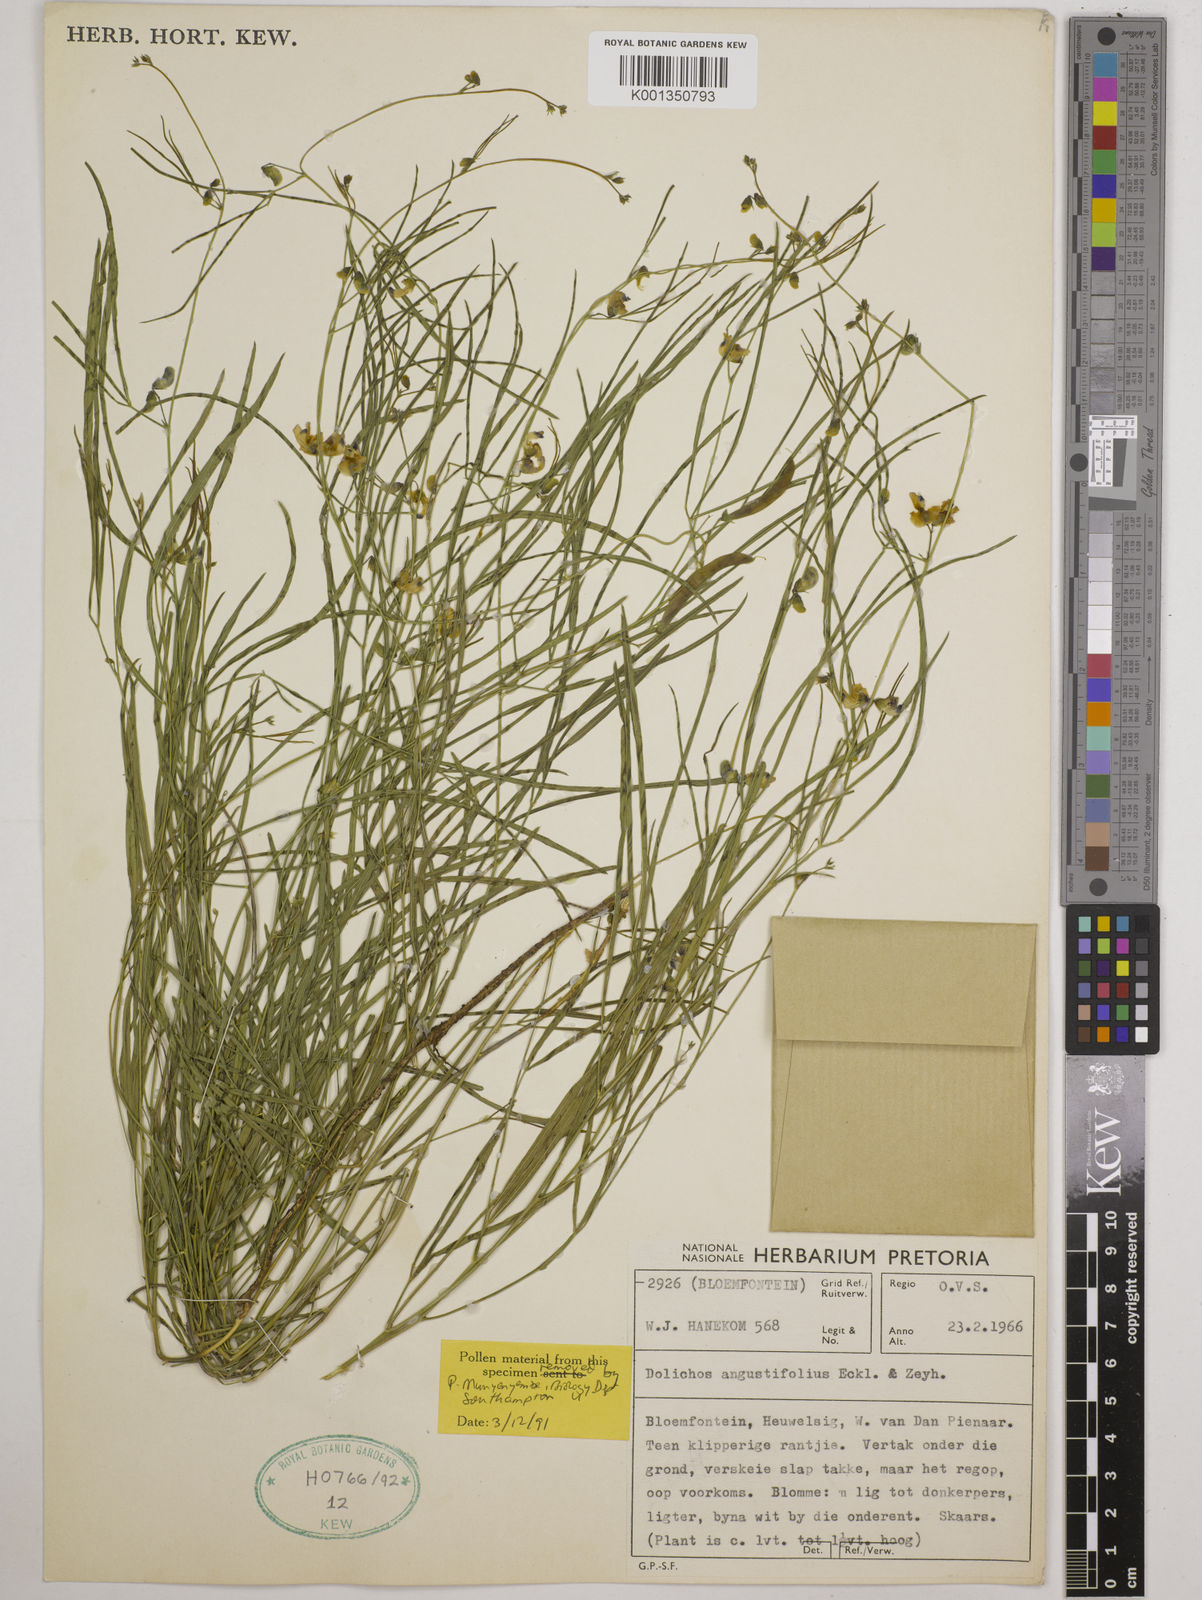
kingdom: Plantae
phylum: Tracheophyta
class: Magnoliopsida
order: Fabales
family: Fabaceae
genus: Dolichos
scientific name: Dolichos
